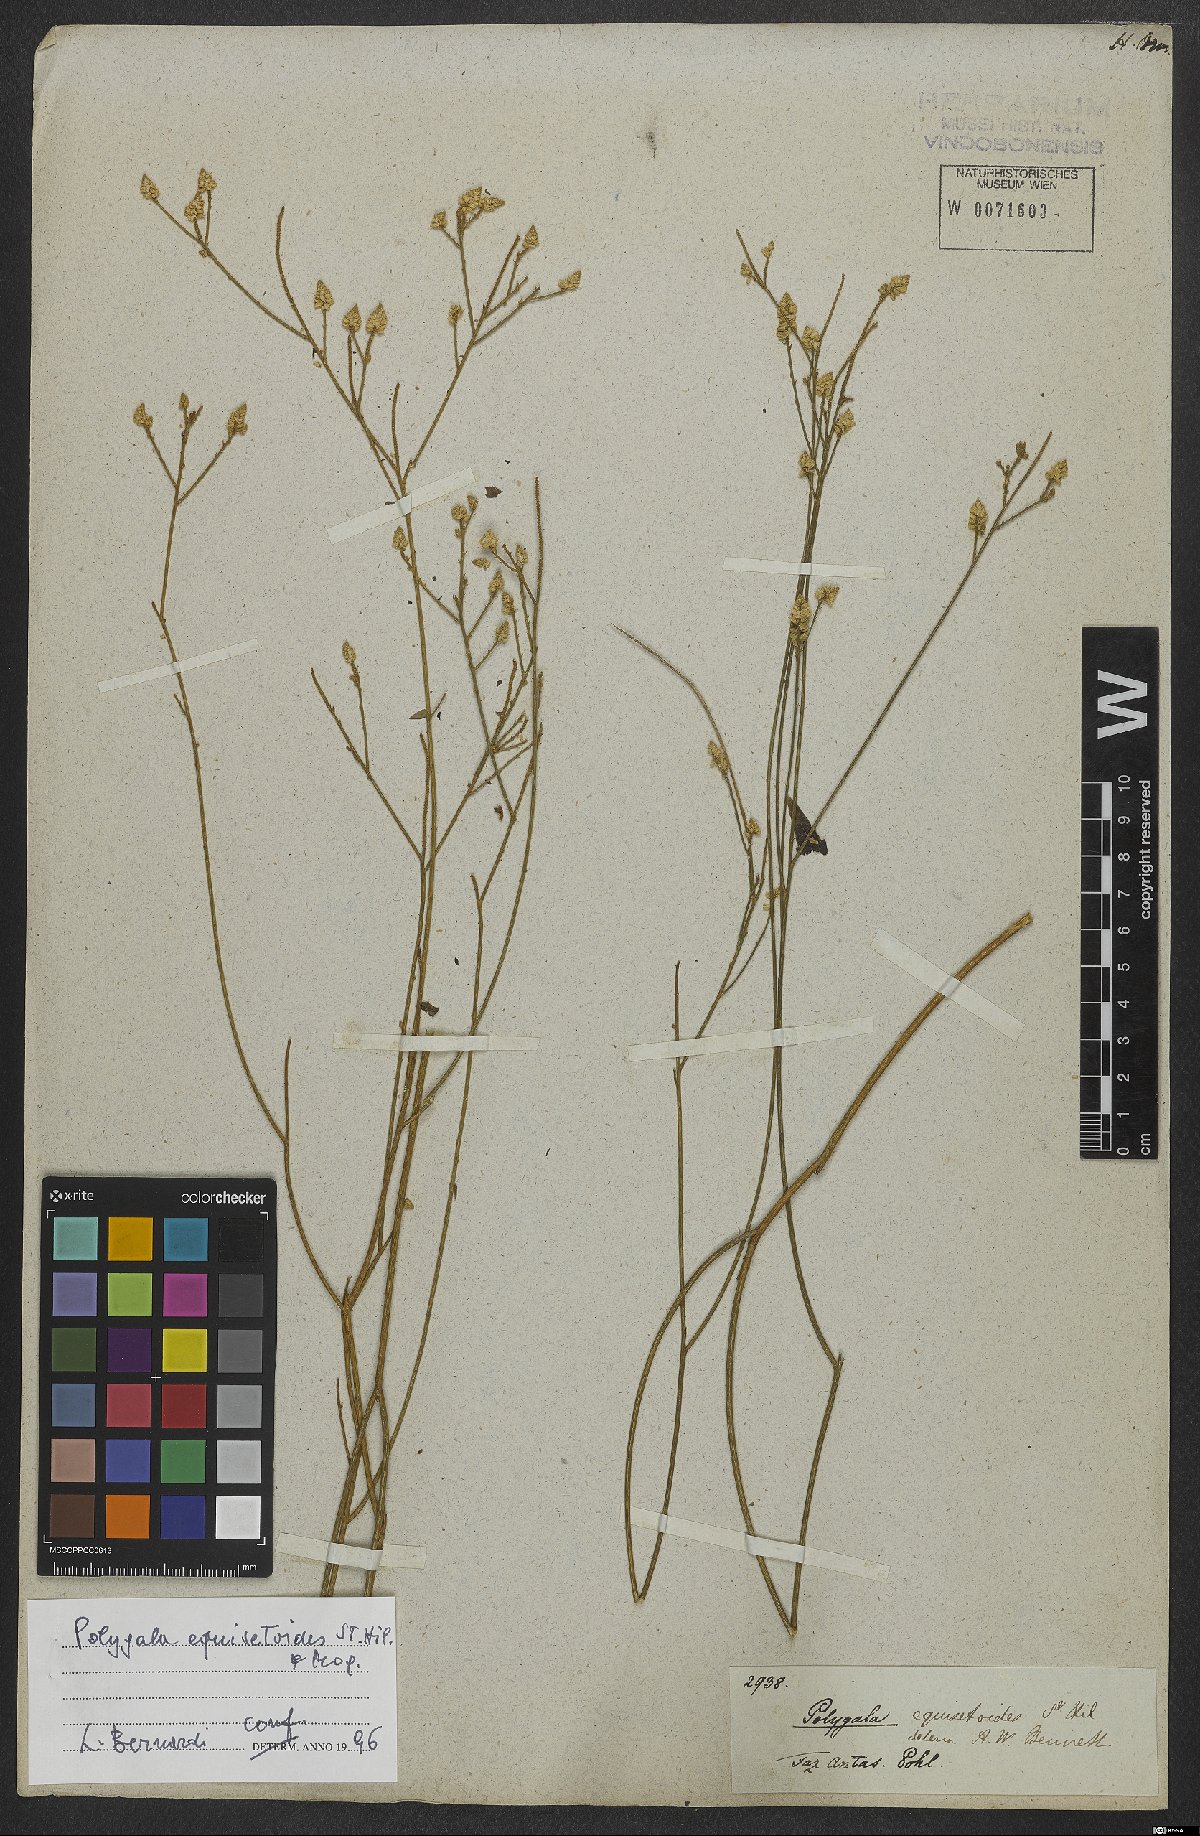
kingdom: Plantae
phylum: Tracheophyta
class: Magnoliopsida
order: Fabales
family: Polygalaceae
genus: Polygala
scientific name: Polygala equisetoides
